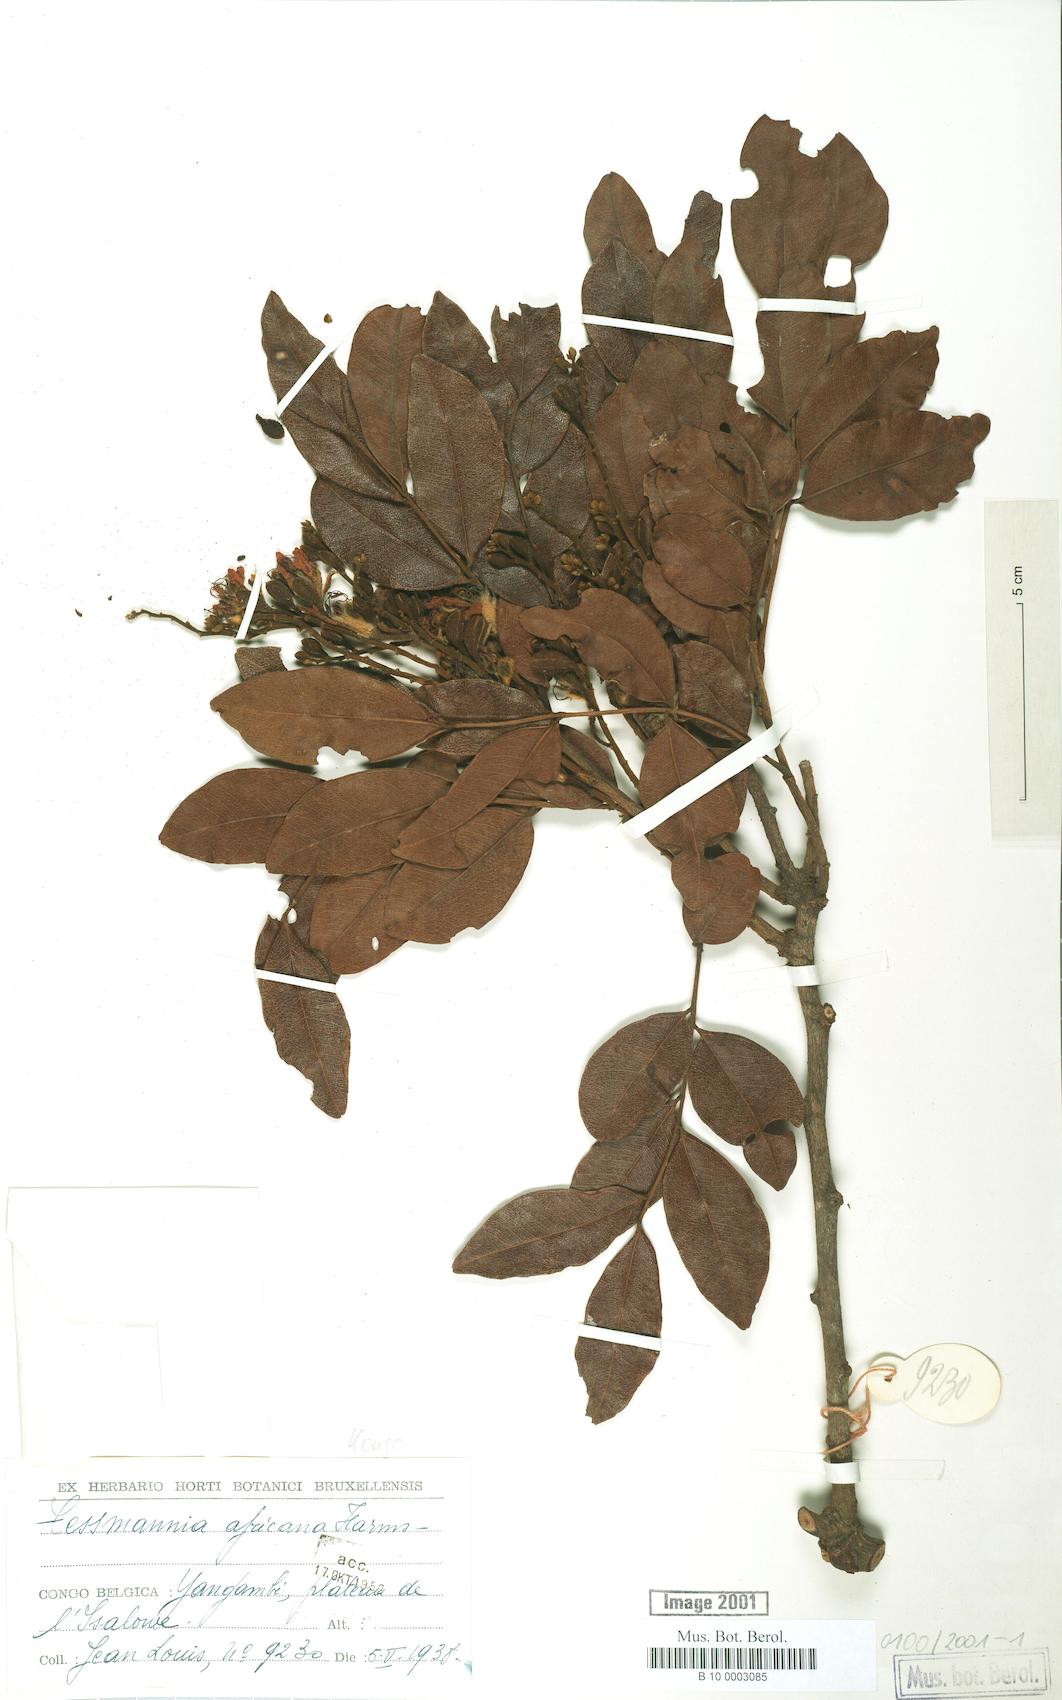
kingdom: Plantae
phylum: Tracheophyta
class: Magnoliopsida
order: Fabales
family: Fabaceae
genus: Tessmannia
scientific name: Tessmannia africana
